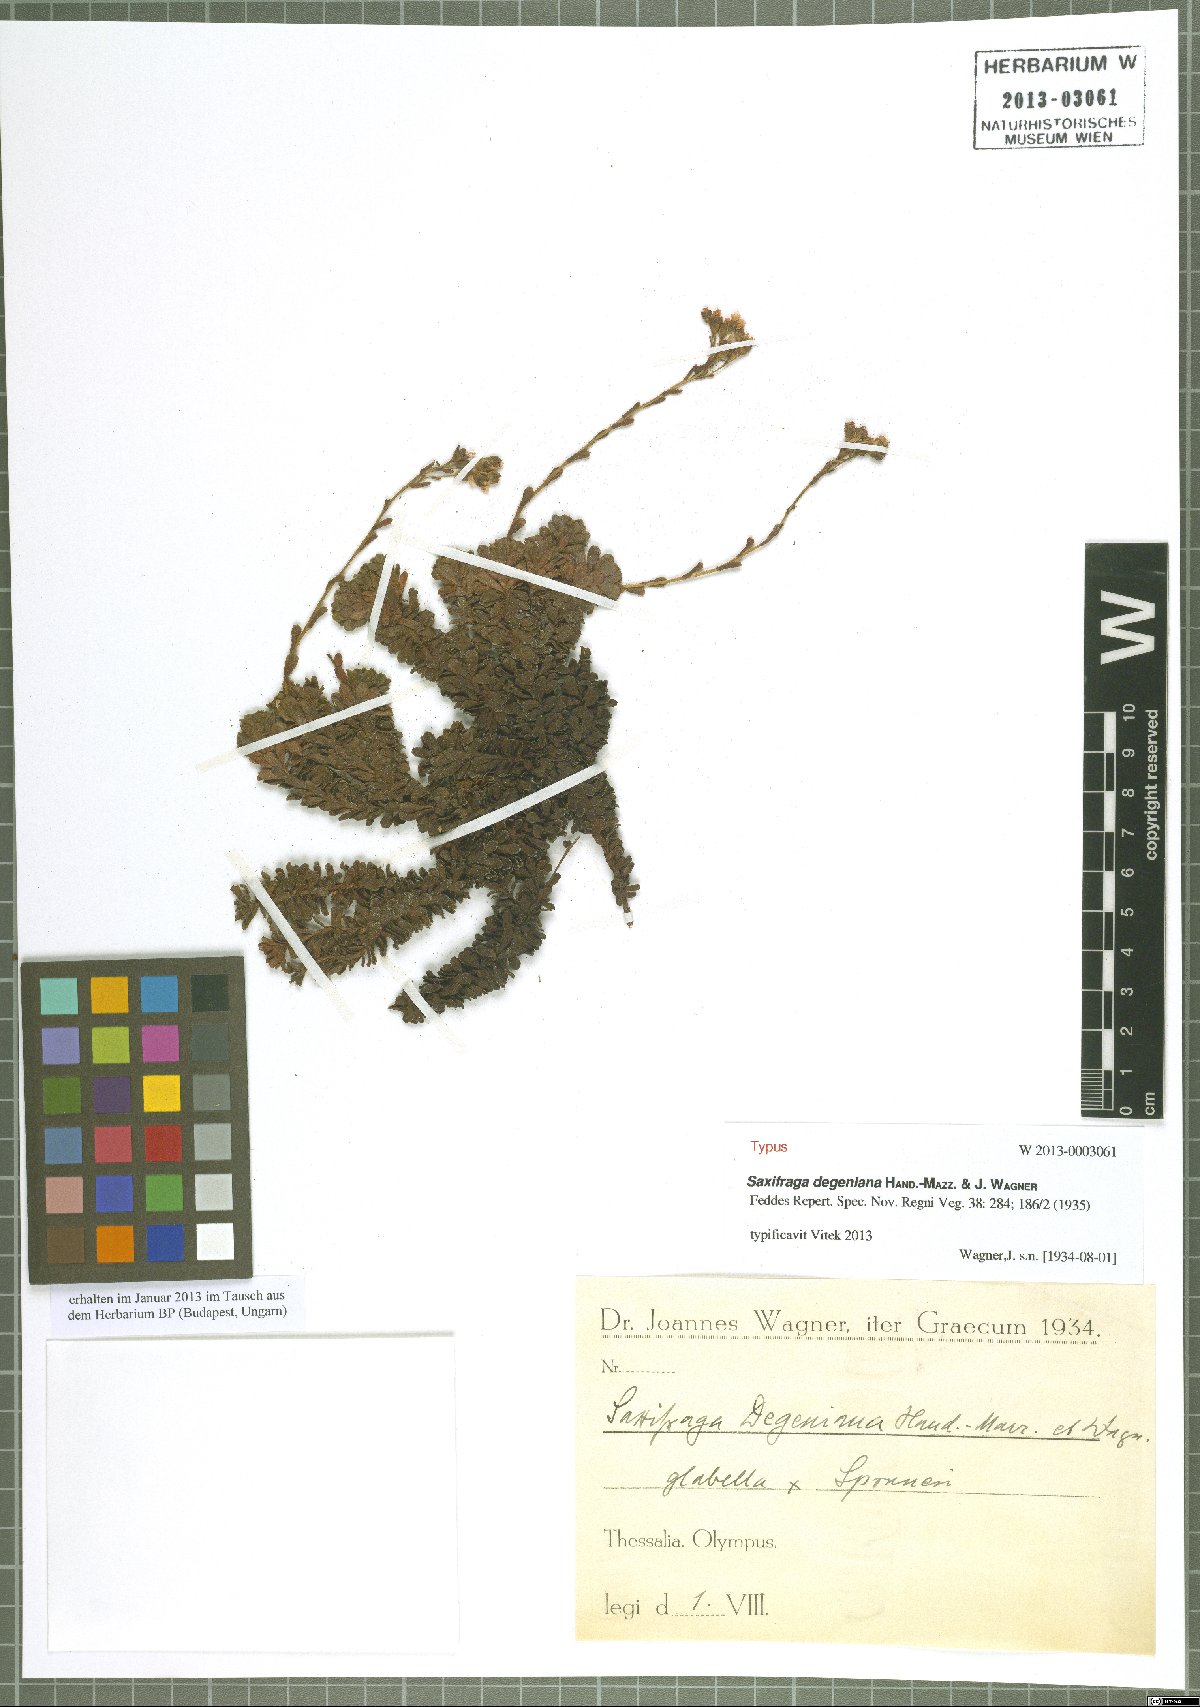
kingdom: Plantae
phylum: Tracheophyta
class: Magnoliopsida
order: Saxifragales
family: Saxifragaceae
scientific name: Saxifragaceae
